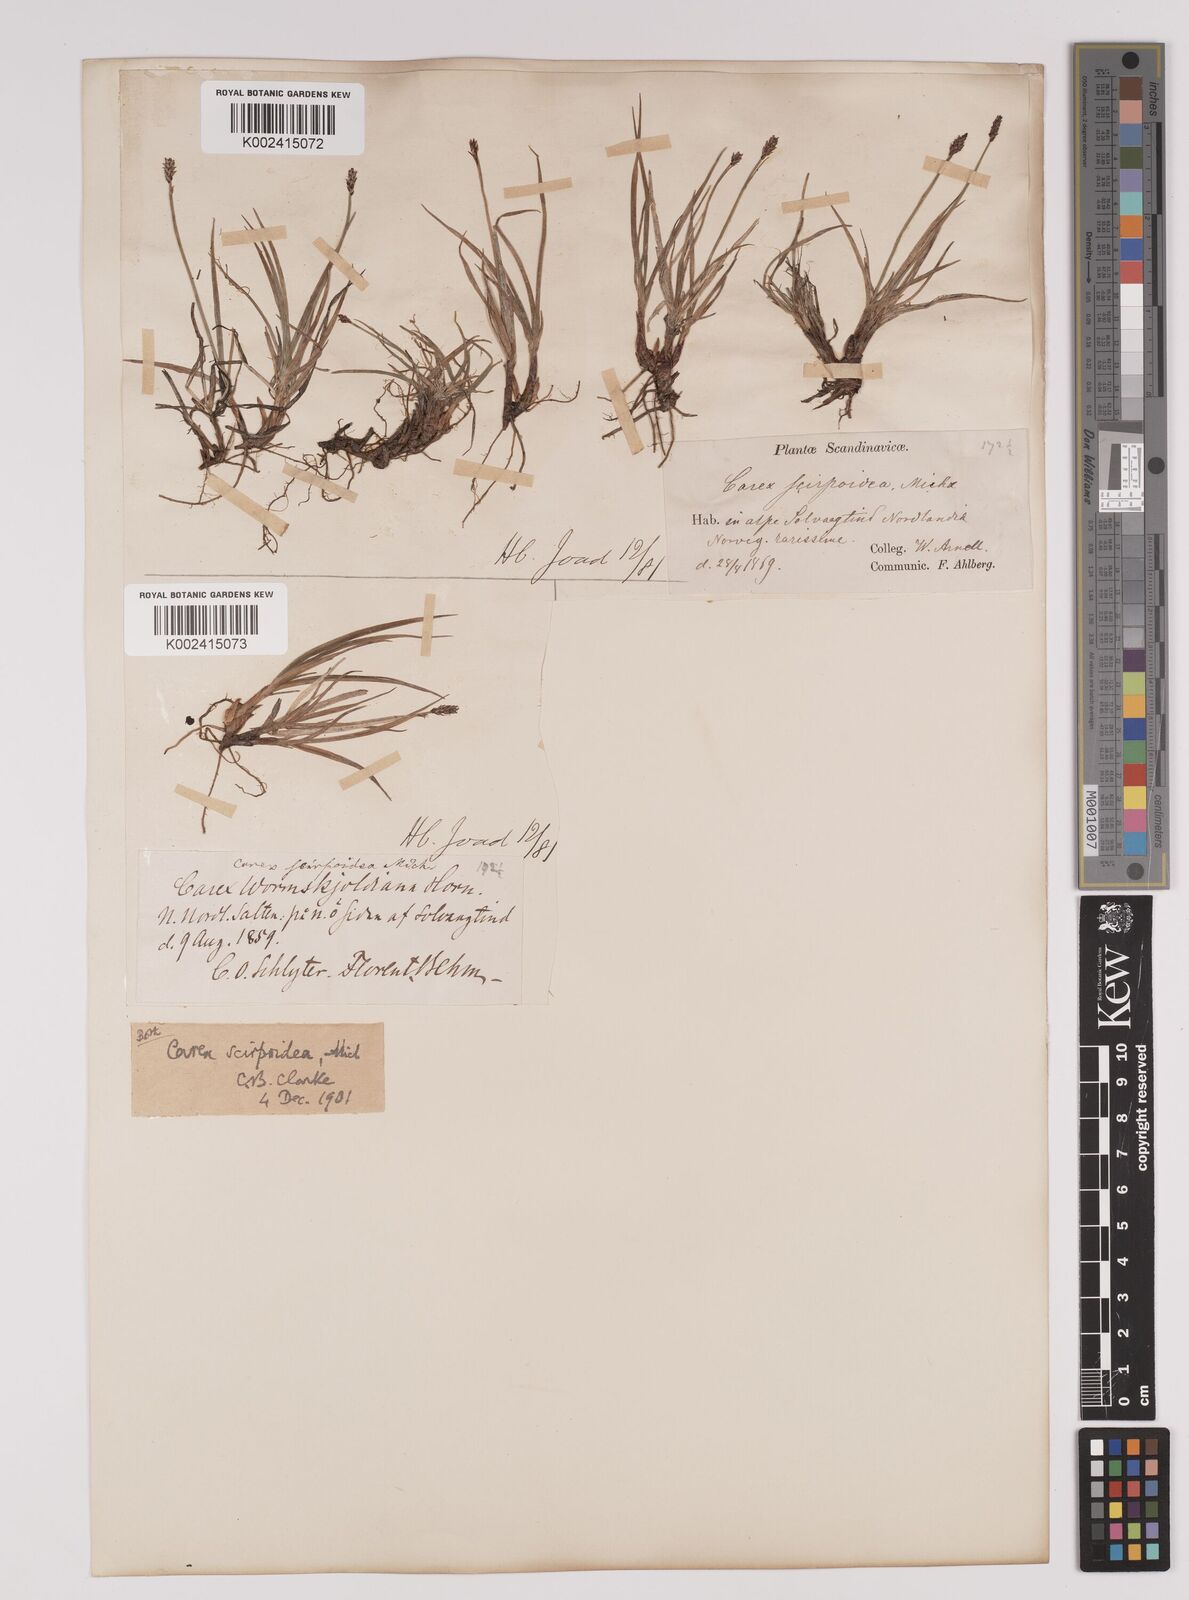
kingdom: Plantae
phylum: Tracheophyta
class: Liliopsida
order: Poales
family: Cyperaceae
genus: Carex
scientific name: Carex
